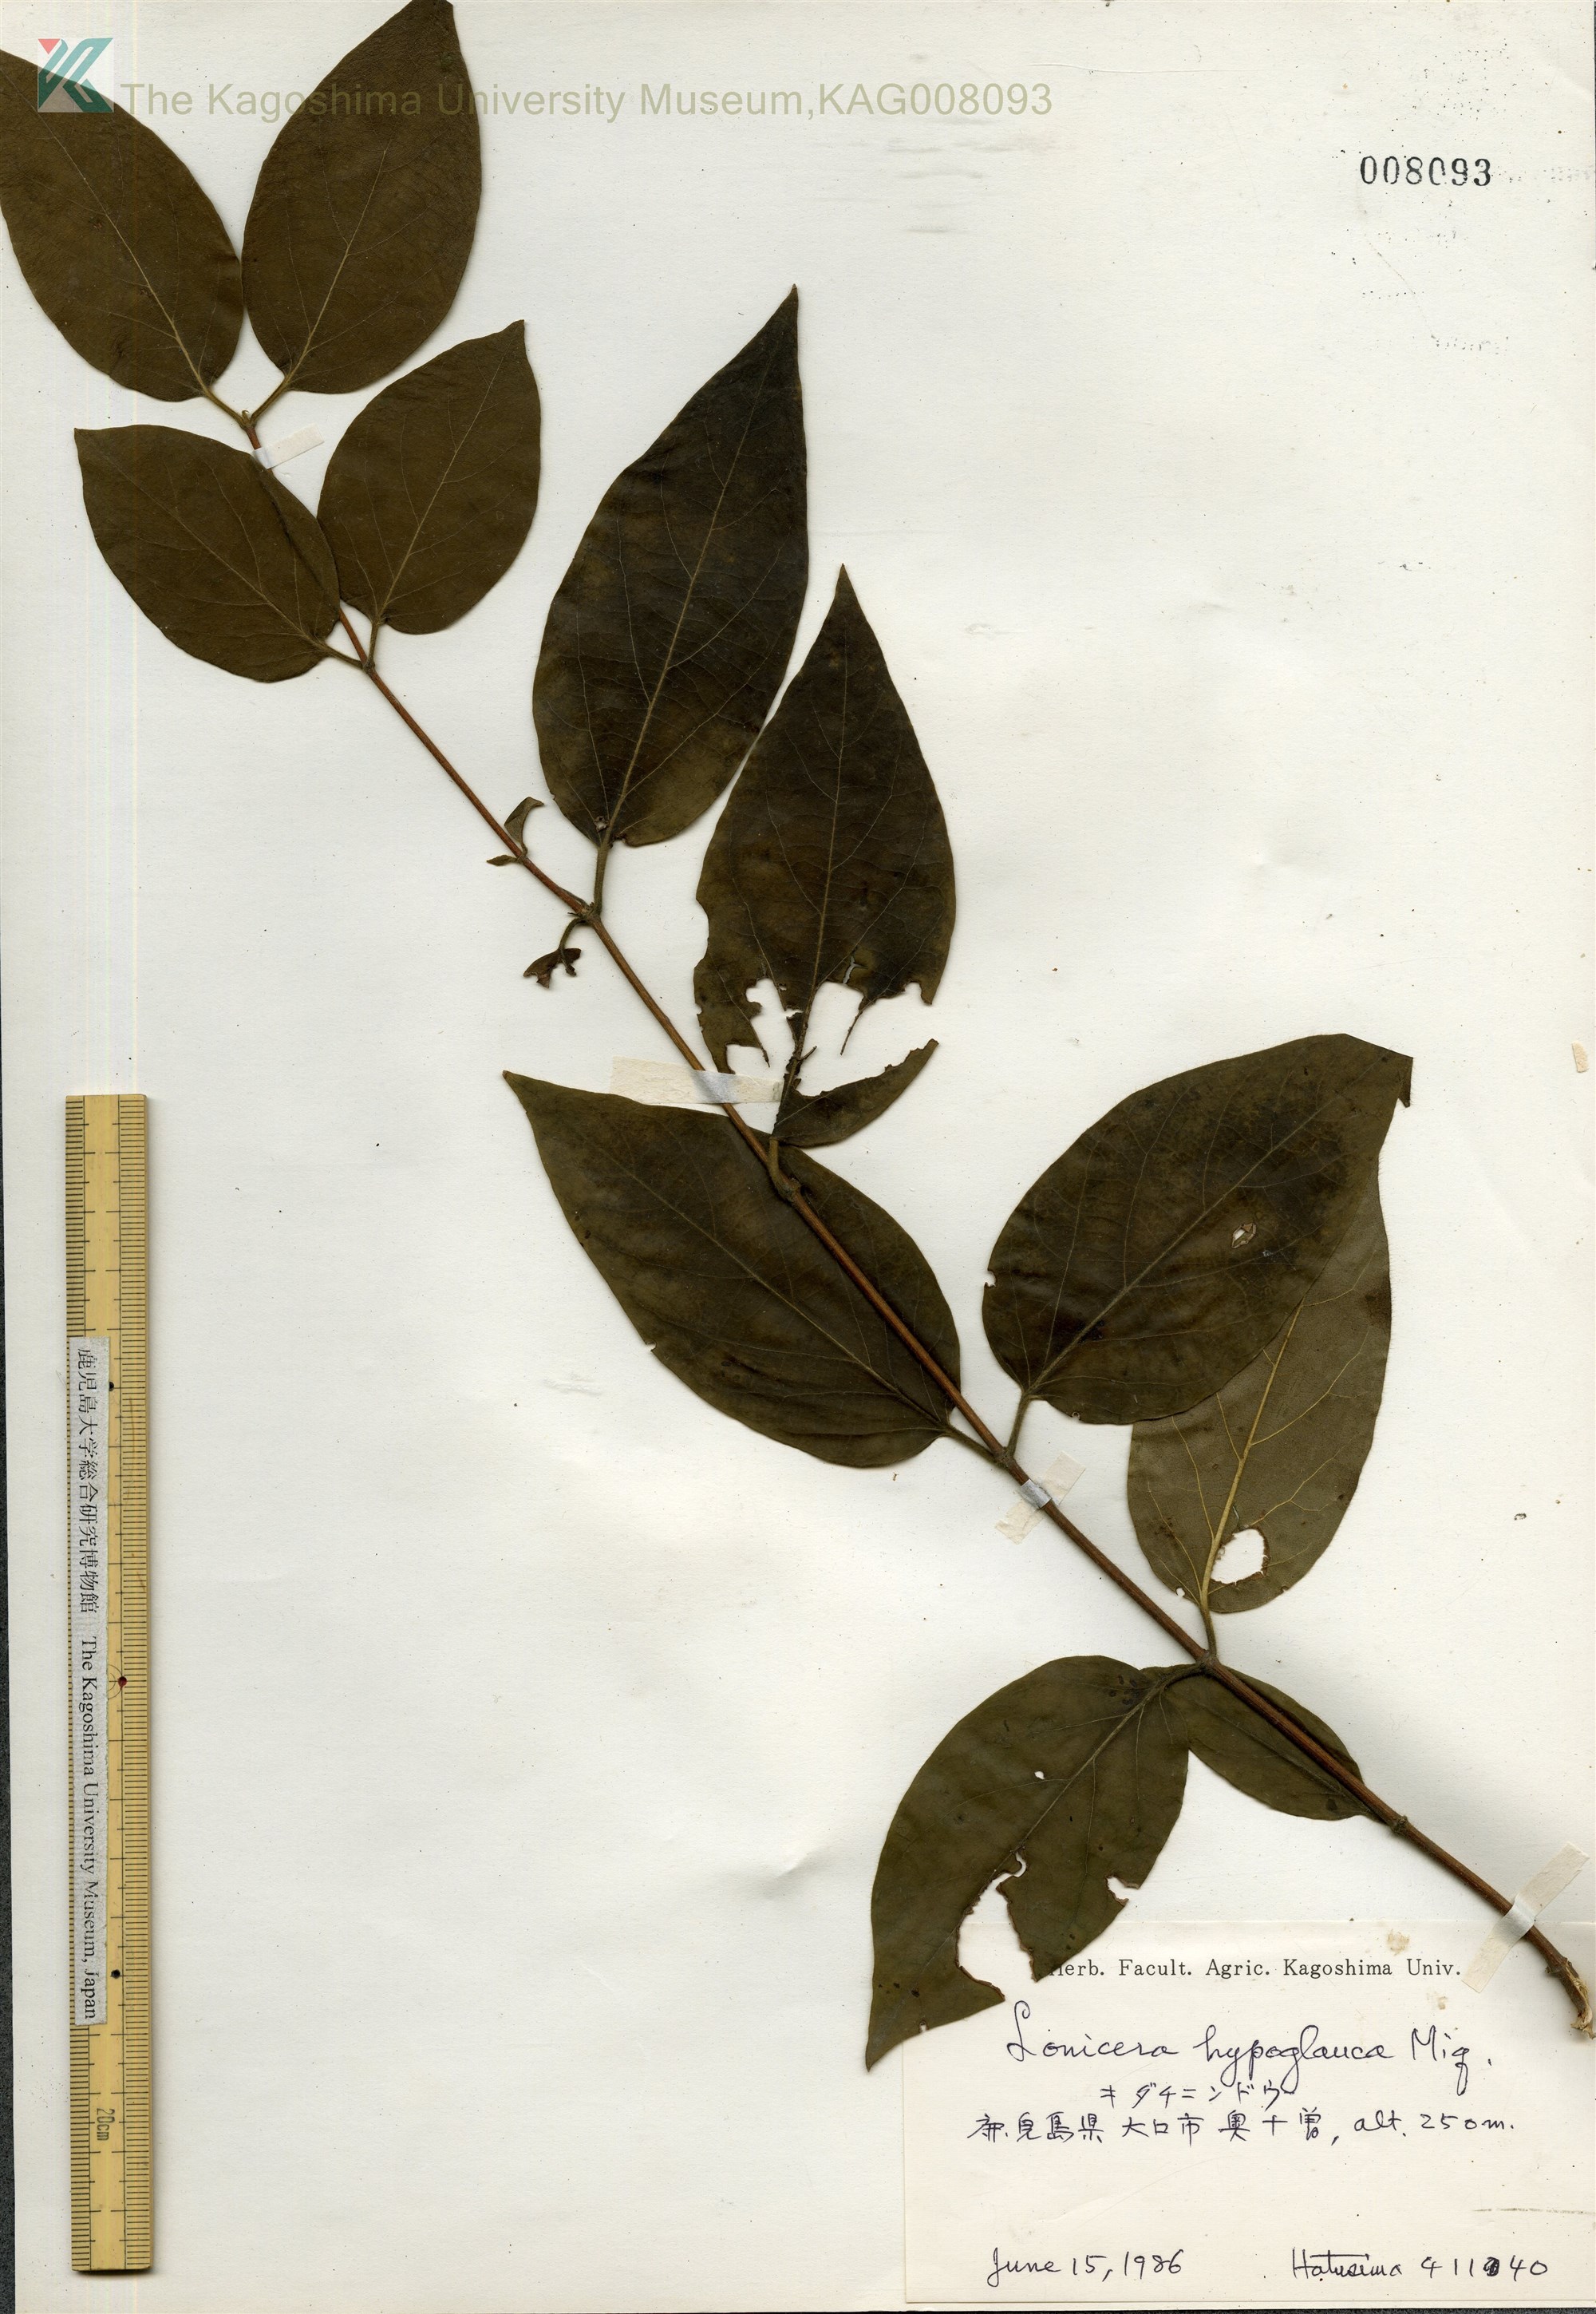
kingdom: Plantae
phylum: Tracheophyta
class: Magnoliopsida
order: Dipsacales
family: Caprifoliaceae
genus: Lonicera
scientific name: Lonicera hypoglauca
